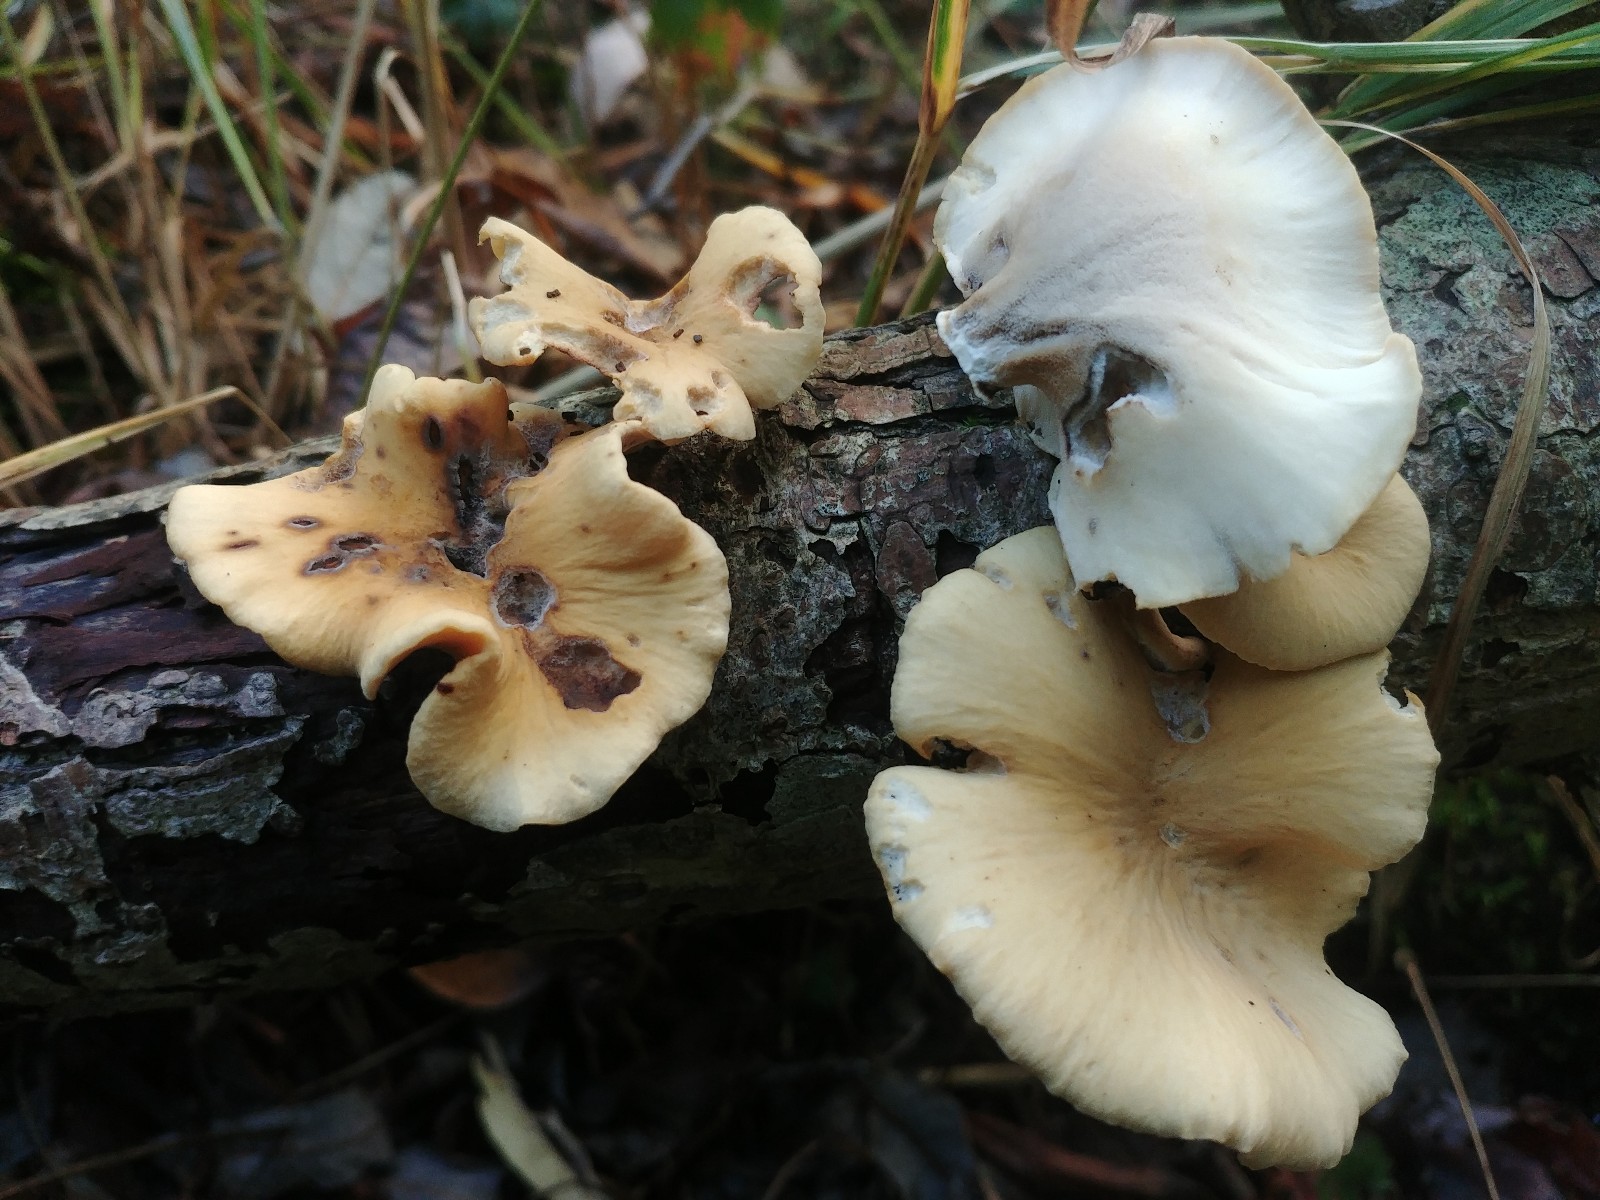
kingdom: Fungi
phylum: Basidiomycota
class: Agaricomycetes
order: Polyporales
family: Polyporaceae
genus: Cerioporus
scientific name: Cerioporus varius
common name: foranderlig stilkporesvamp
